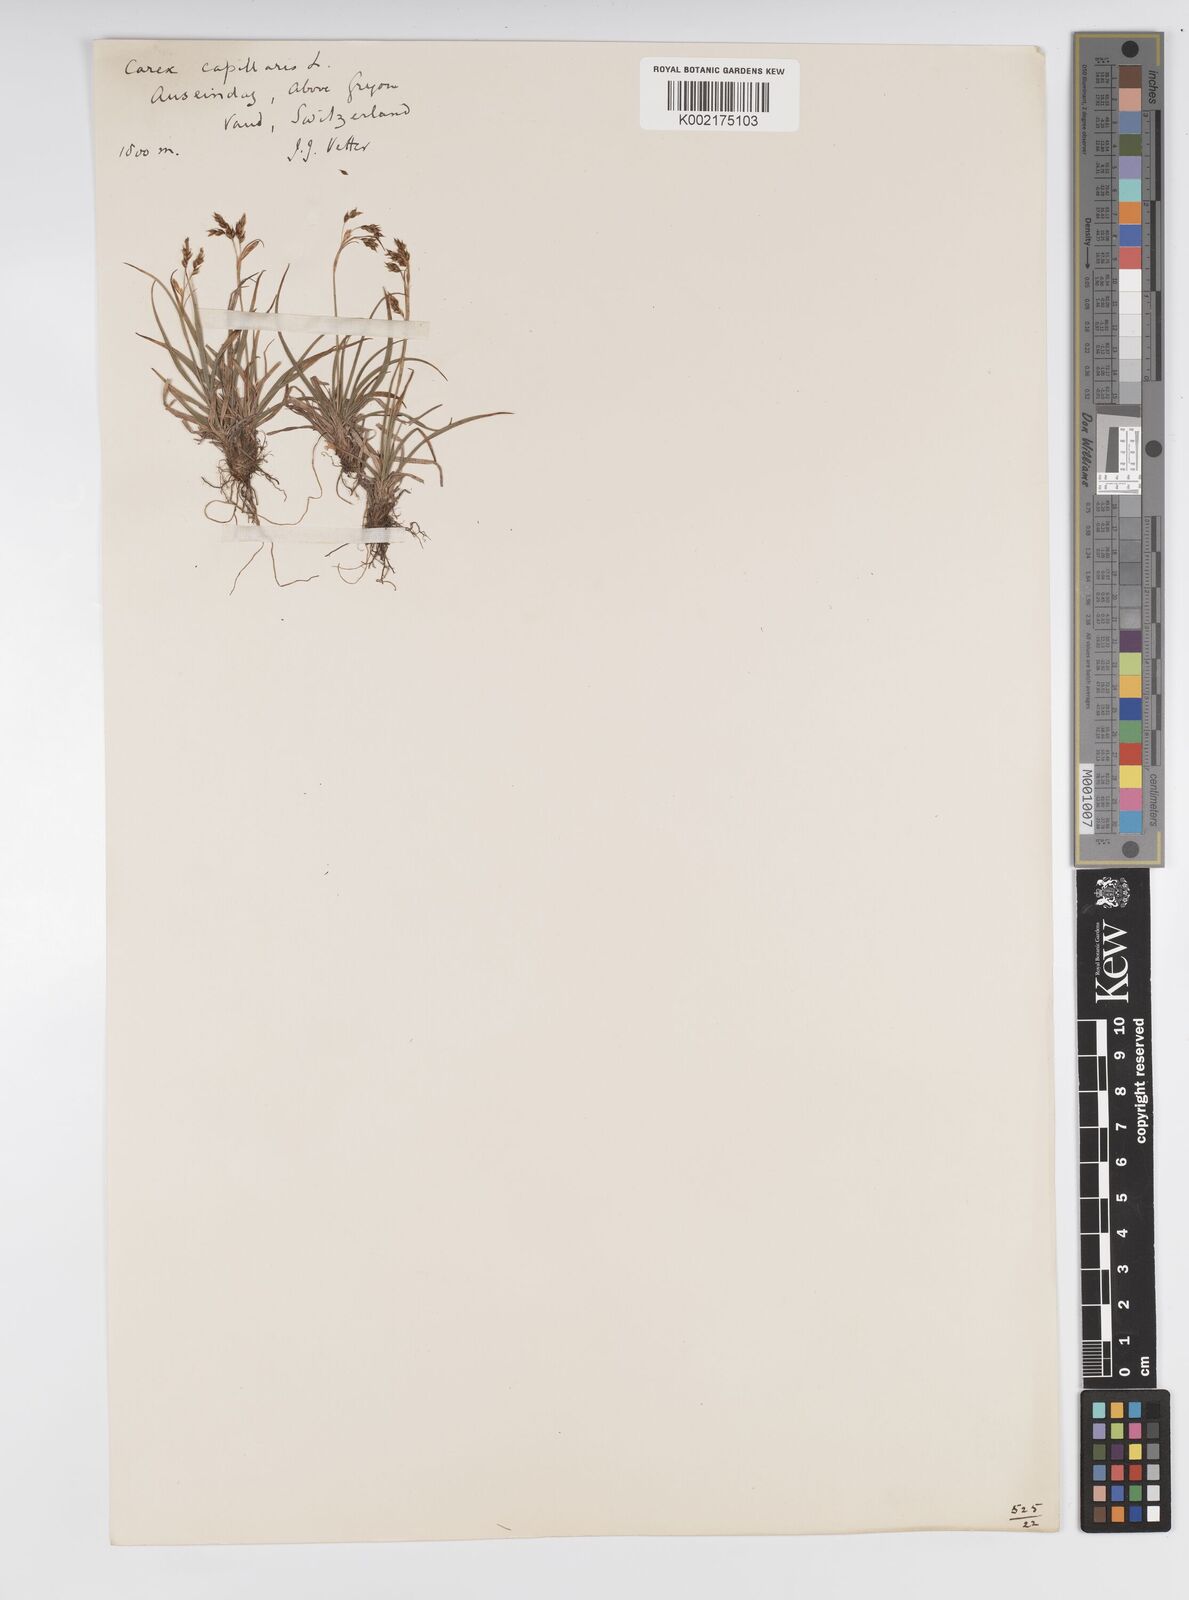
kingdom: Plantae
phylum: Tracheophyta
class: Liliopsida
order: Poales
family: Cyperaceae
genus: Carex
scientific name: Carex capillaris
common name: Hair sedge
